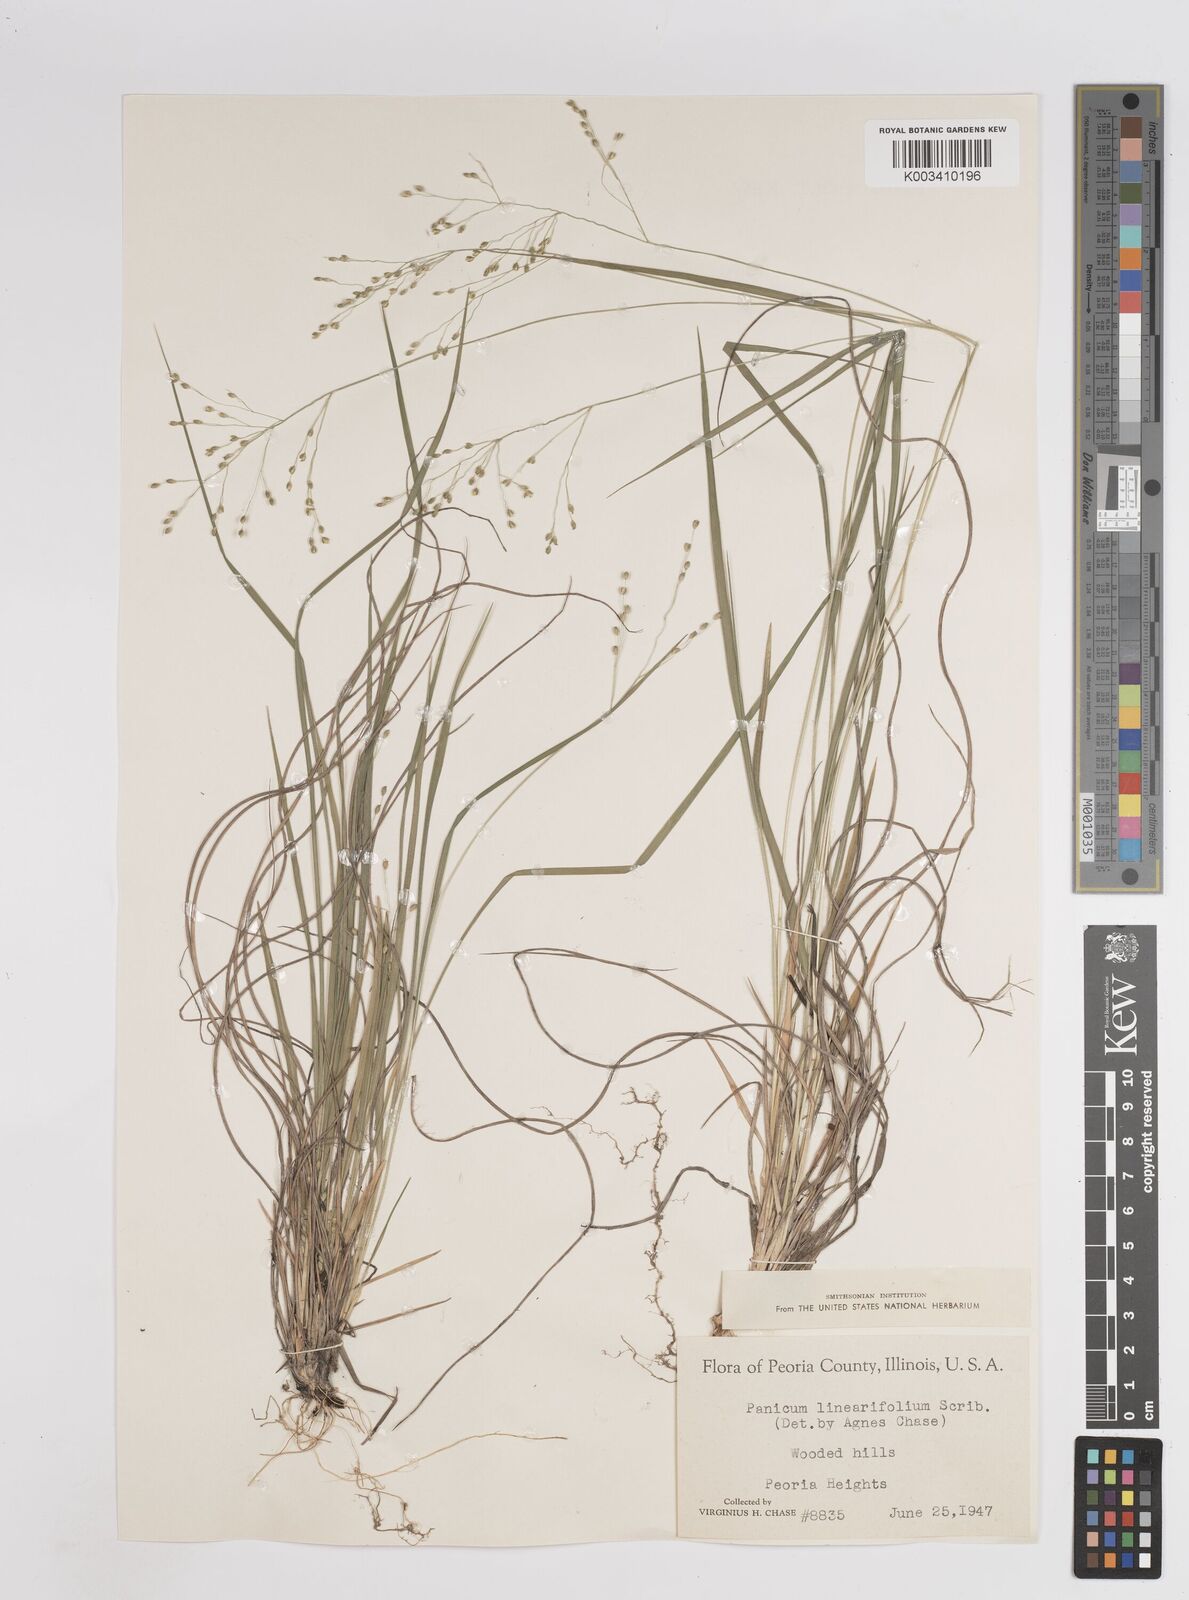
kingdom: Plantae
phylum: Tracheophyta
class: Liliopsida
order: Poales
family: Poaceae
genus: Dichanthelium
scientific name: Dichanthelium linearifolium
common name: Linear-leaved panicgrass
